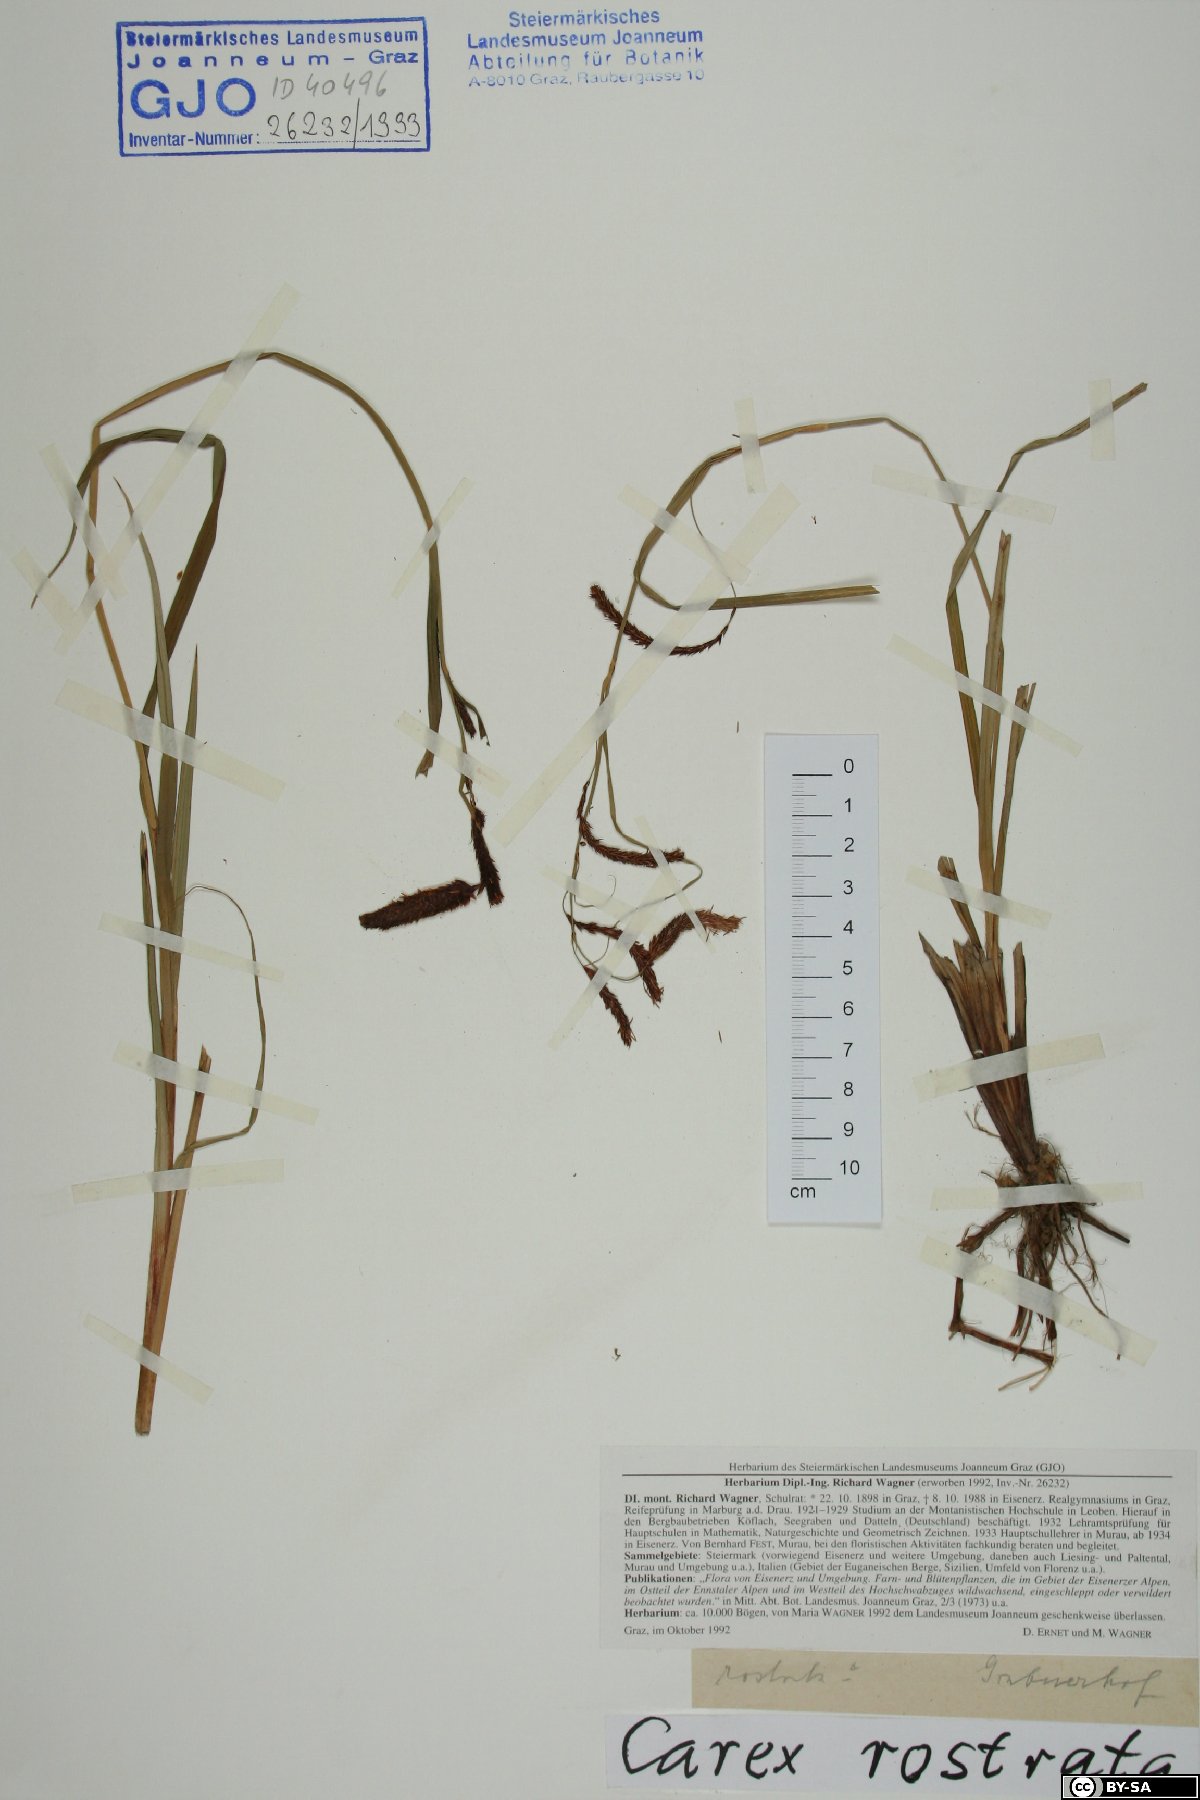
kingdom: Plantae
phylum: Tracheophyta
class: Liliopsida
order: Poales
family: Cyperaceae
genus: Carex
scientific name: Carex rostrata
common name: Bottle sedge
